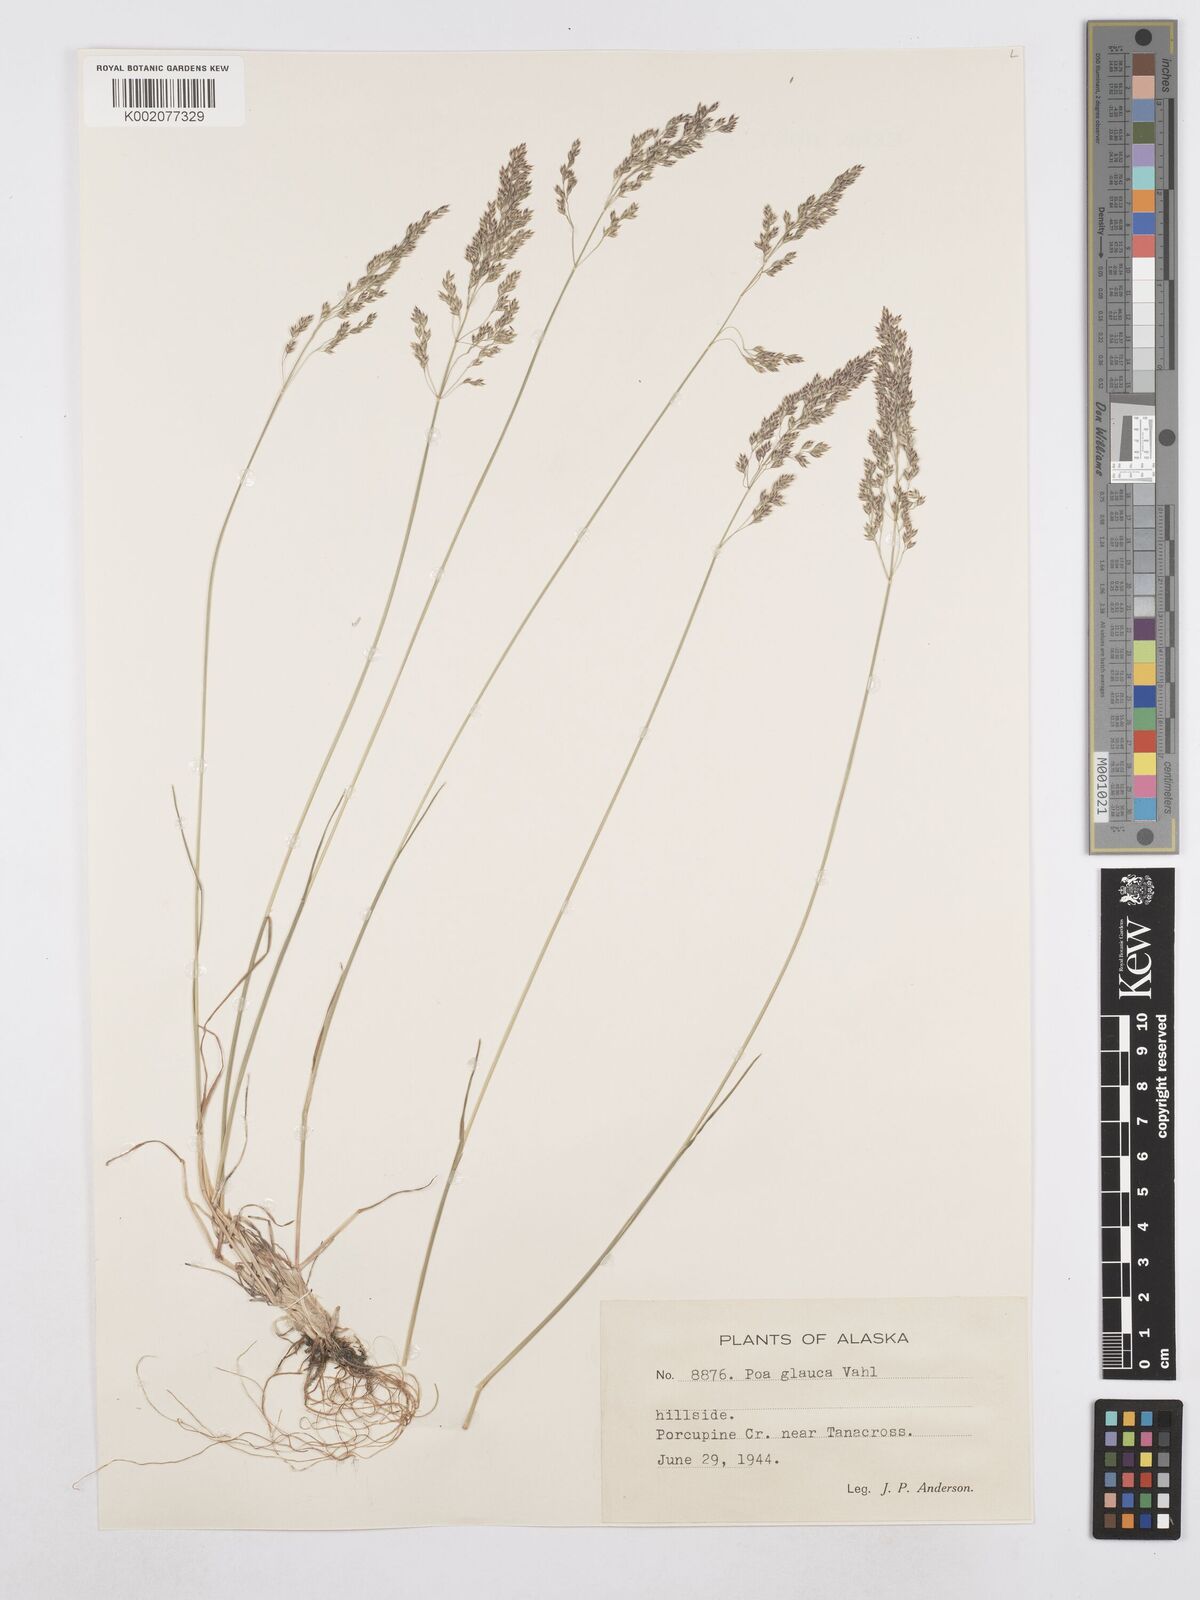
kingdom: Plantae
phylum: Tracheophyta
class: Liliopsida
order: Poales
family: Poaceae
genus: Poa
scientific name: Poa glauca
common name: Glaucous bluegrass
